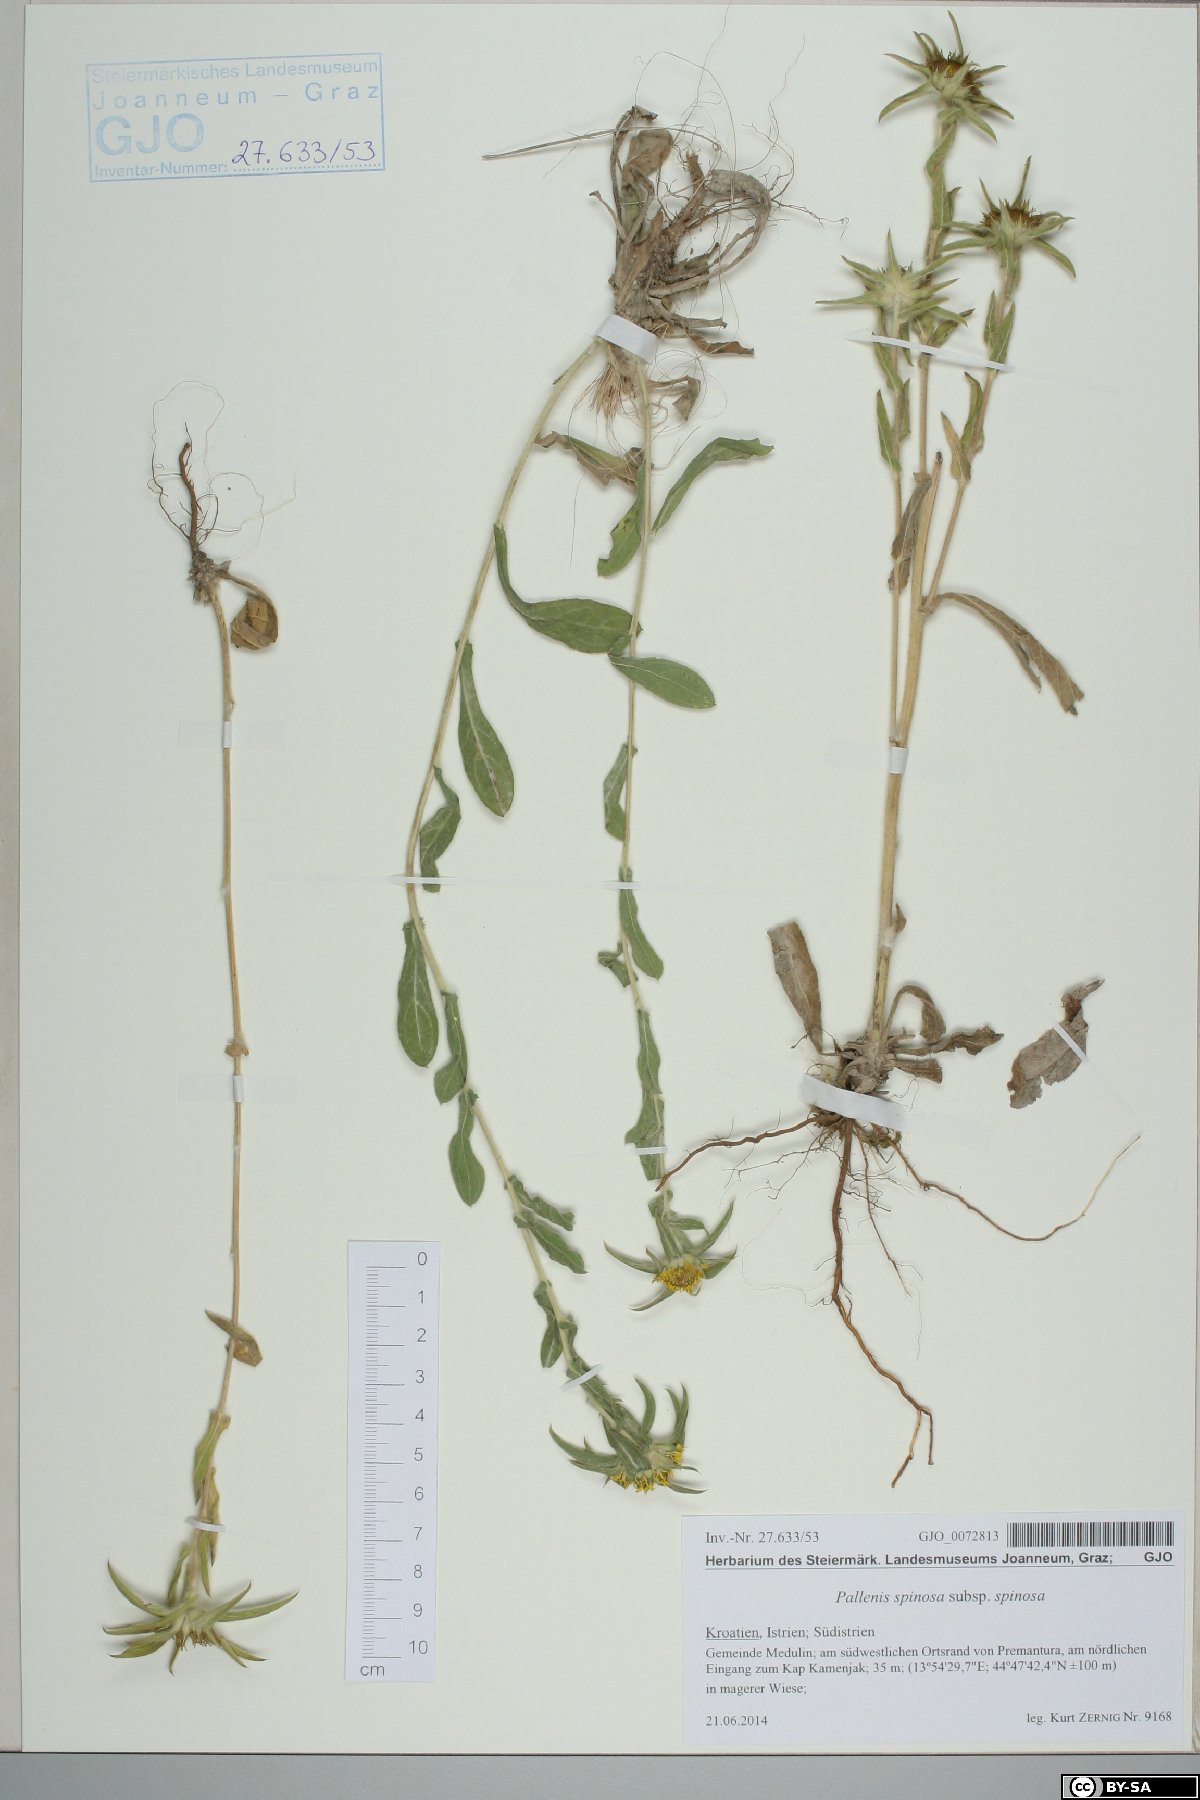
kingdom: Plantae
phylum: Tracheophyta
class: Magnoliopsida
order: Asterales
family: Asteraceae
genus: Pallenis
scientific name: Pallenis spinosa
